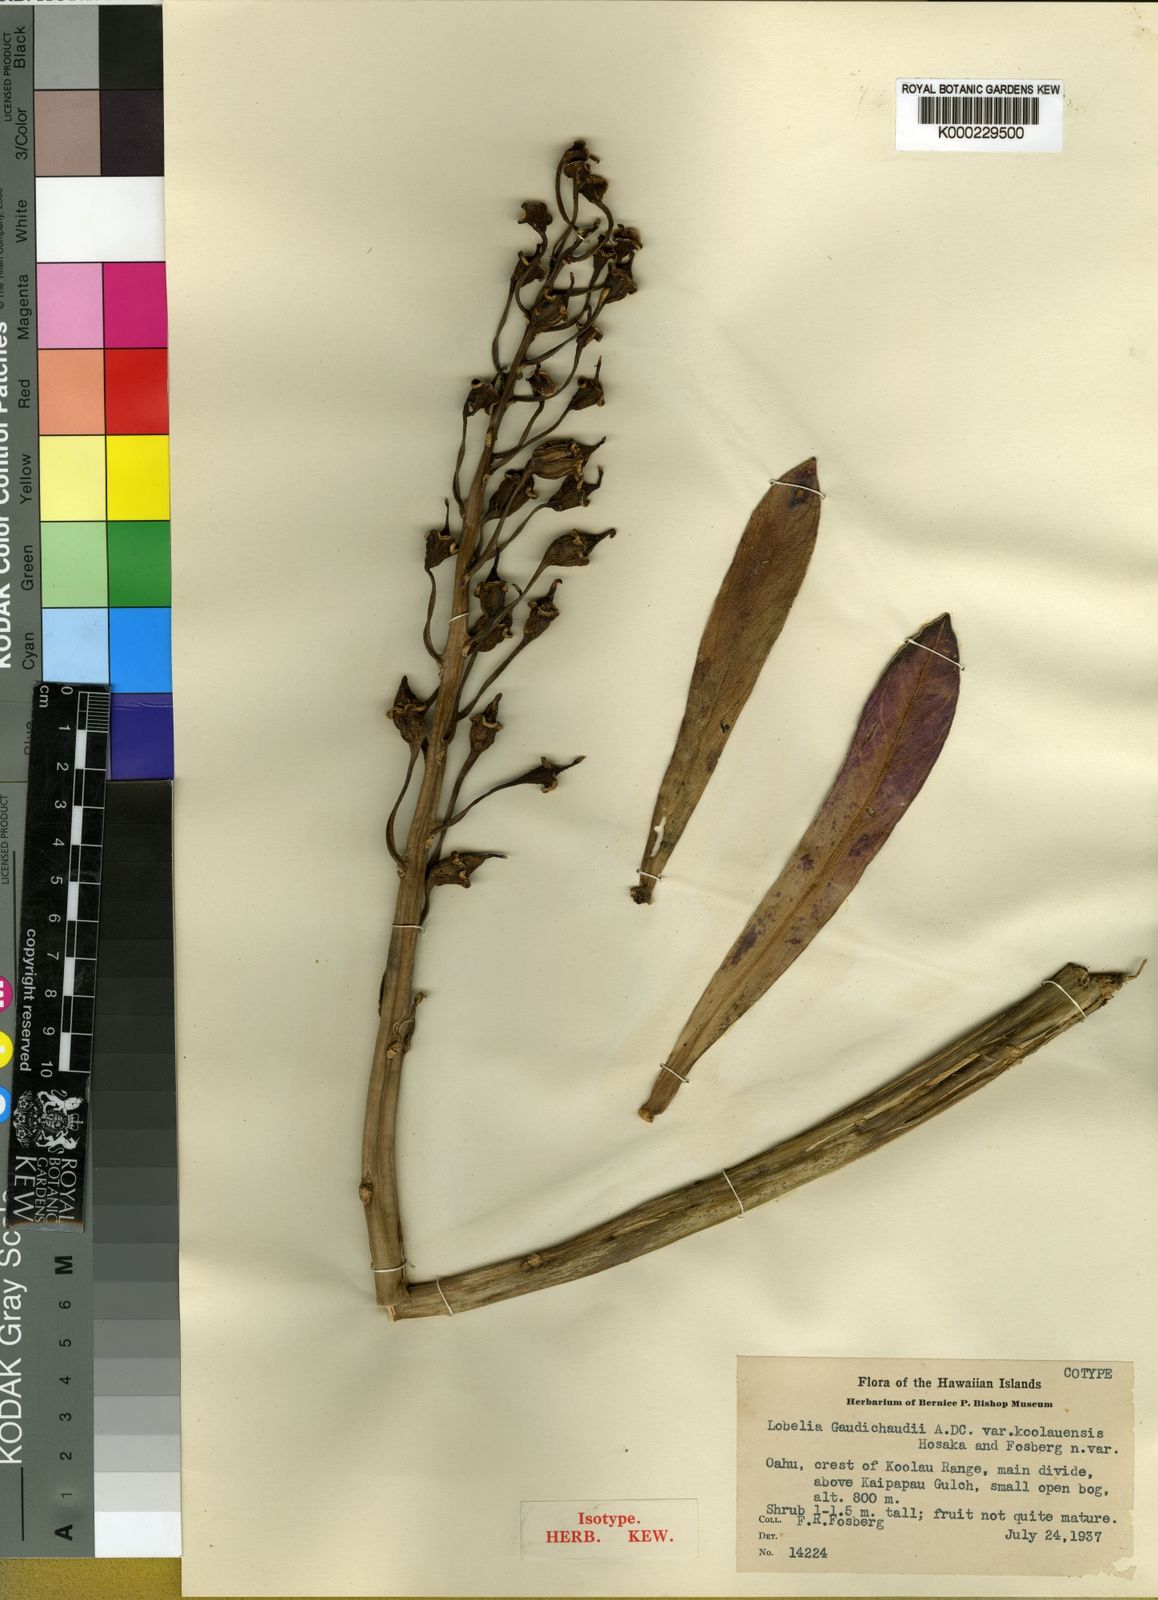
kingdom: Plantae
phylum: Tracheophyta
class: Magnoliopsida
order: Asterales
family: Campanulaceae
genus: Lobelia
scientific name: Lobelia koolauensis
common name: Koolau range lobelia
